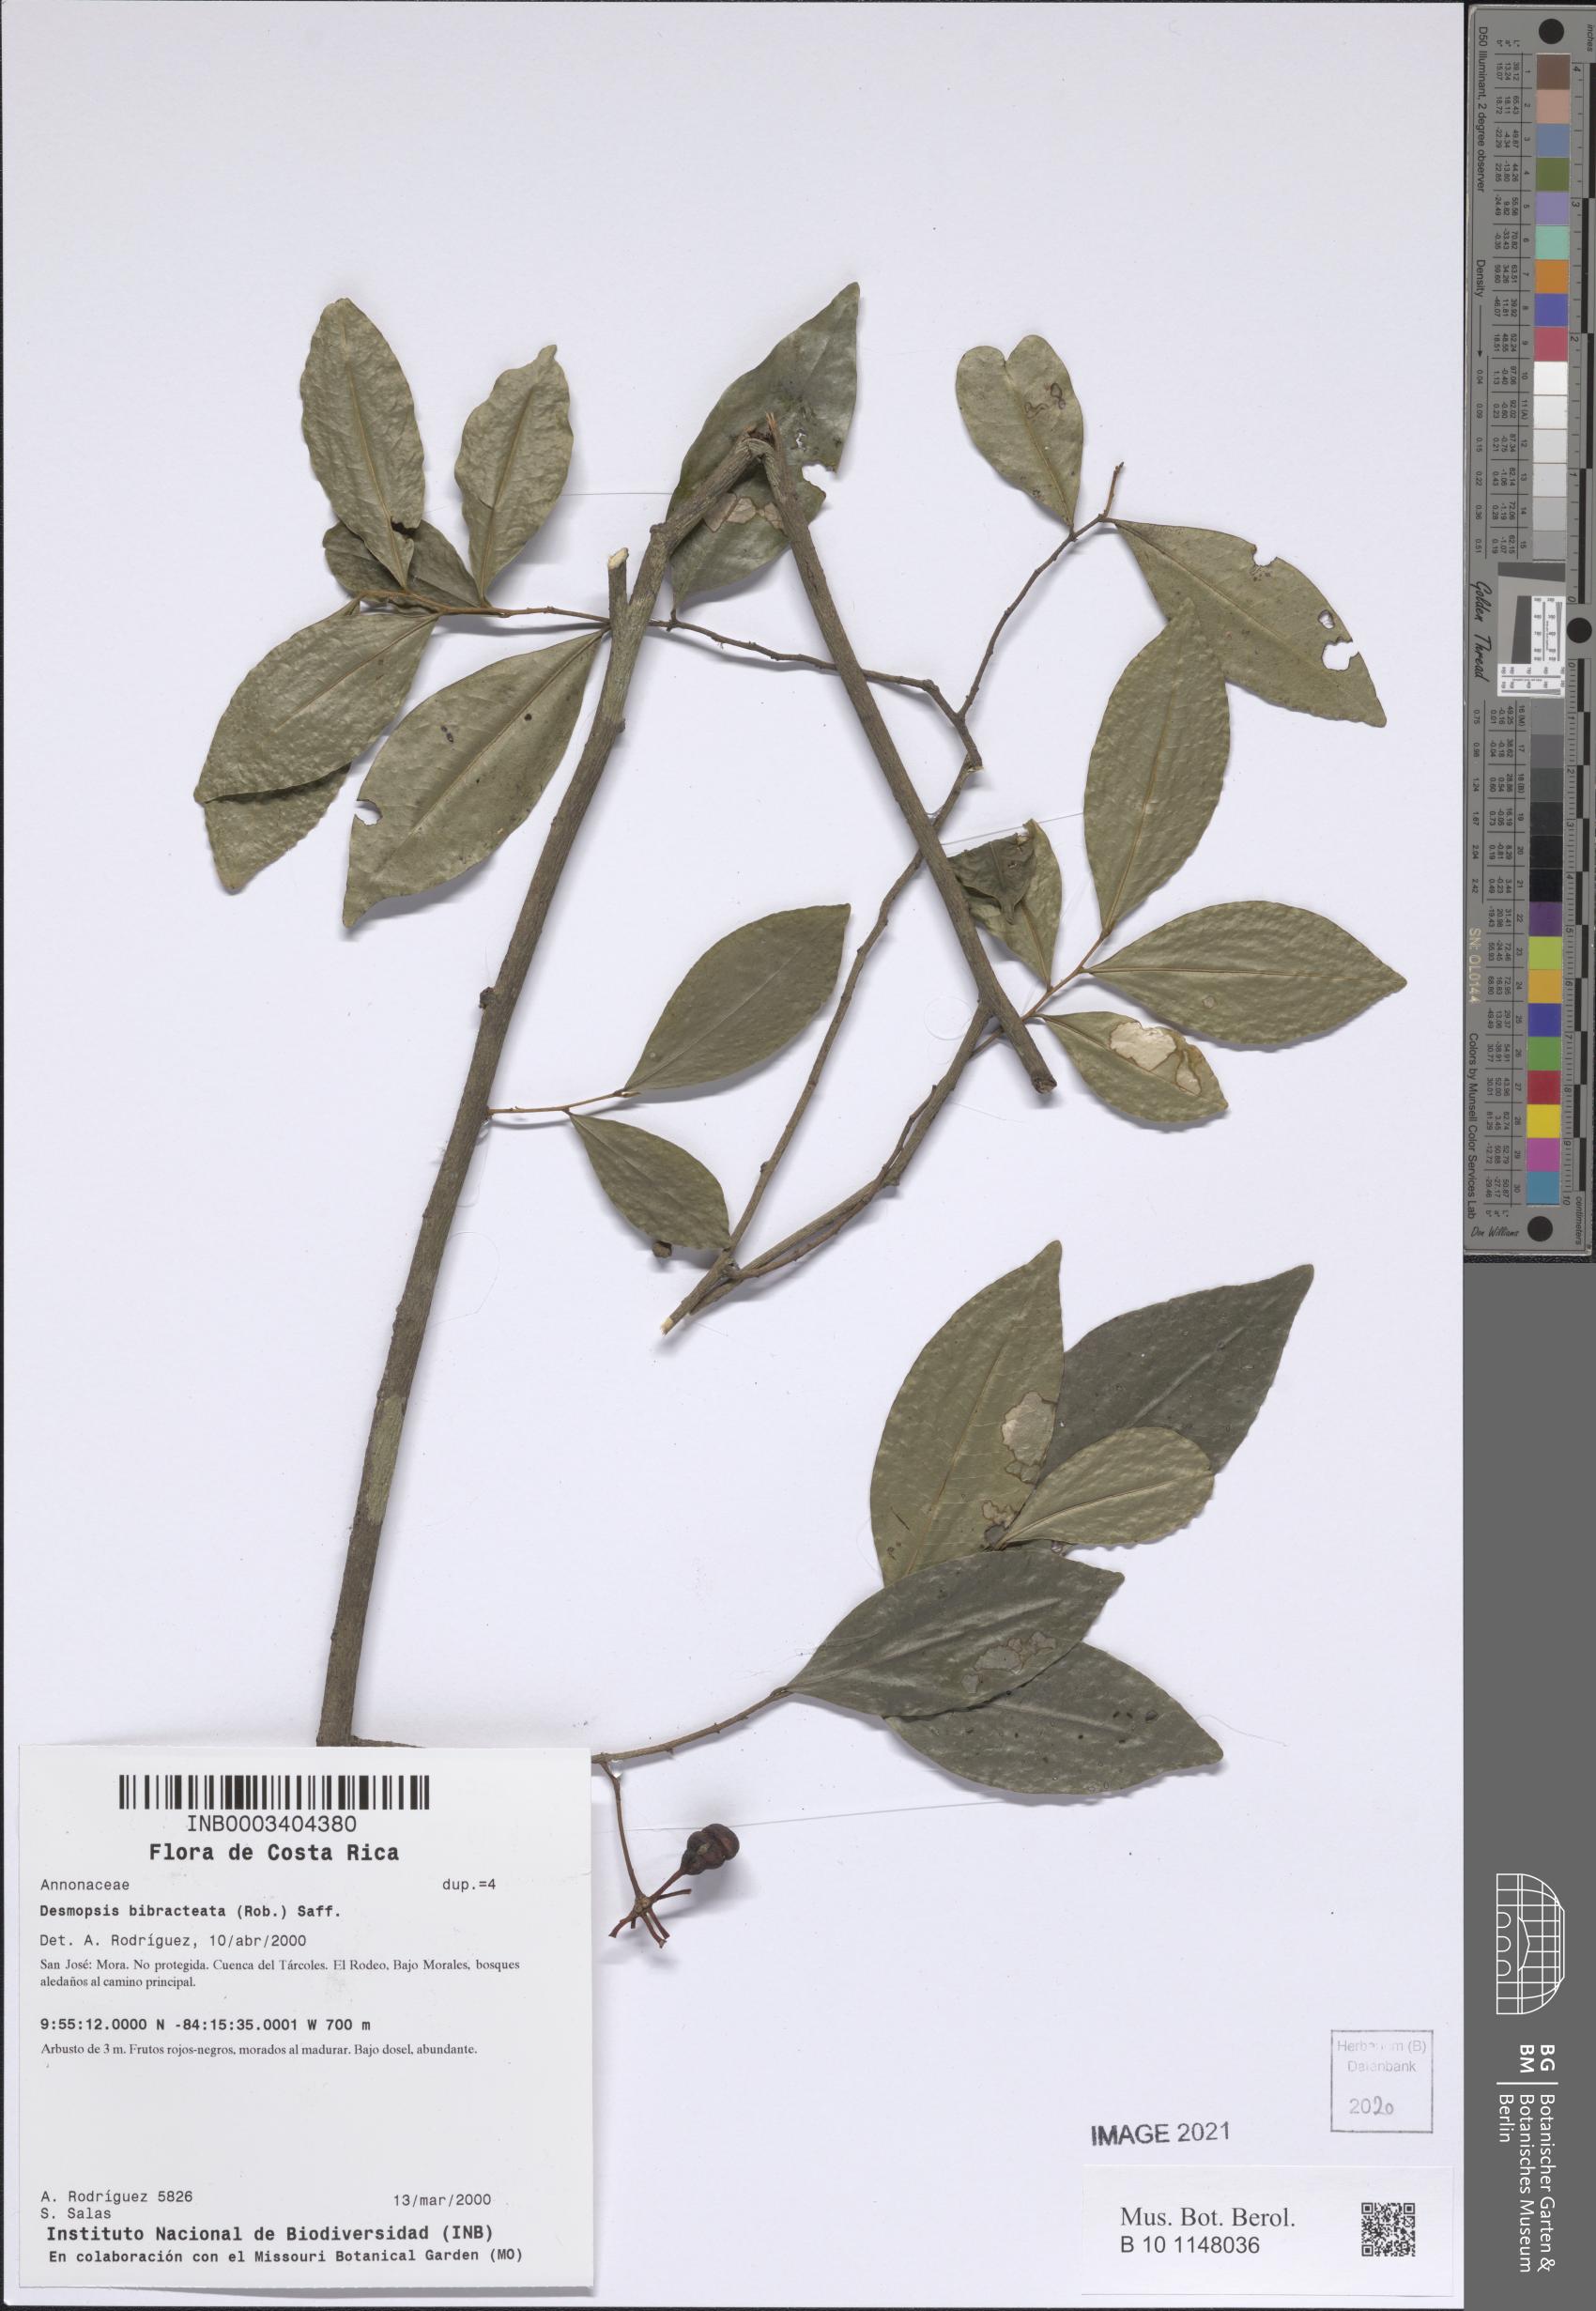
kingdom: Plantae
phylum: Tracheophyta
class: Magnoliopsida
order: Magnoliales
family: Annonaceae
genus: Desmopsis
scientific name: Desmopsis bibracteata
